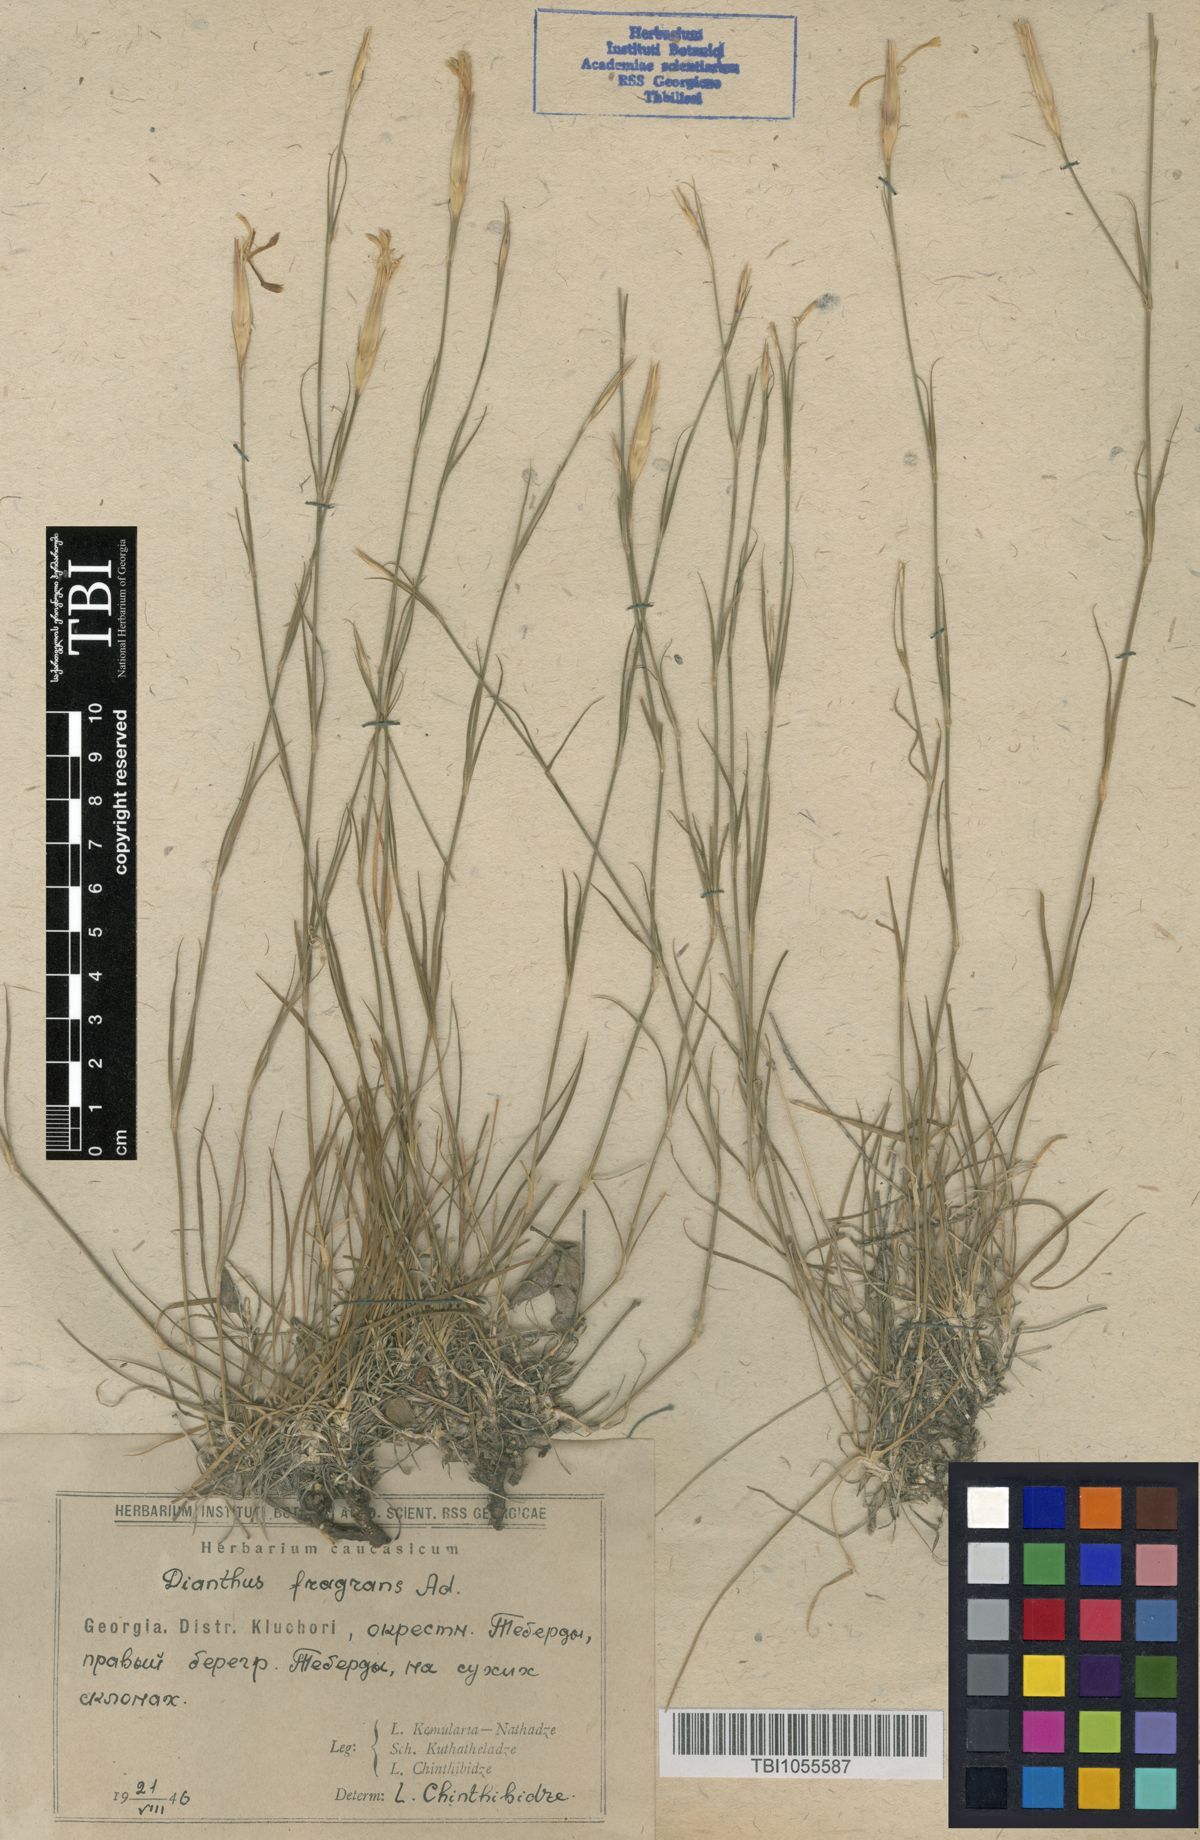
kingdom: Plantae
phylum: Tracheophyta
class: Magnoliopsida
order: Caryophyllales
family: Caryophyllaceae
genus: Dianthus
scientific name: Dianthus
